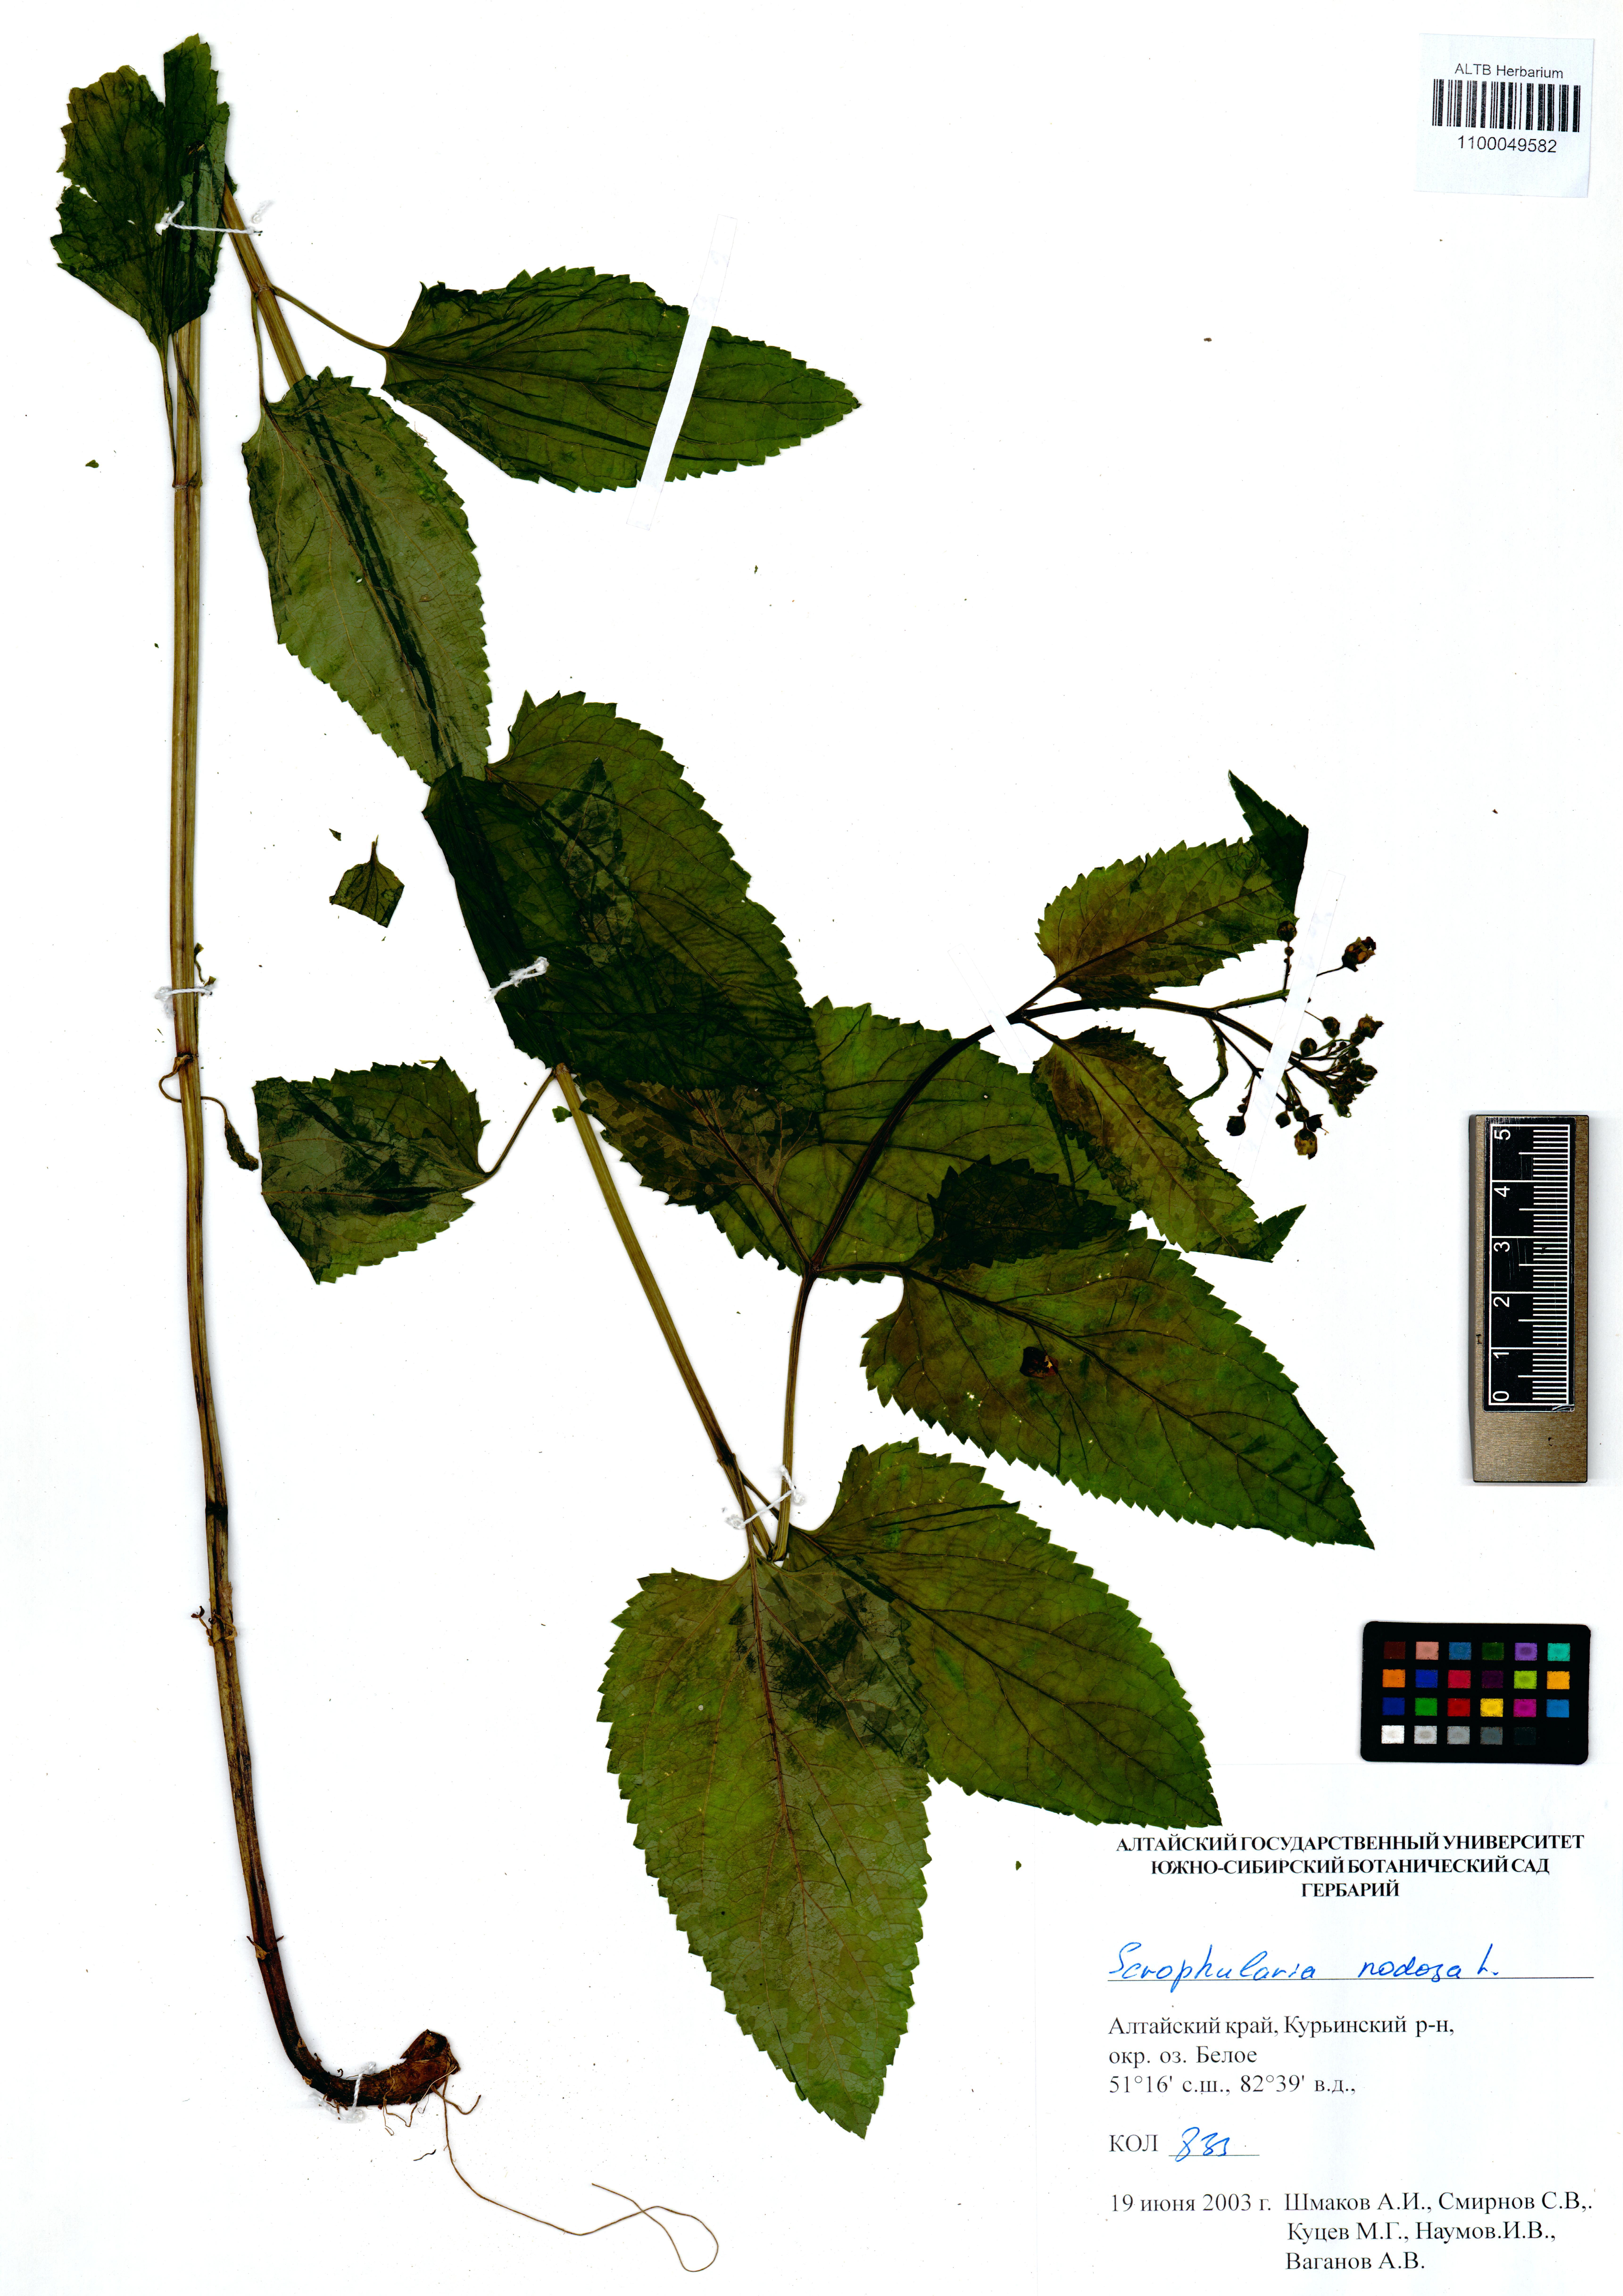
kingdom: Plantae
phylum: Tracheophyta
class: Magnoliopsida
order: Lamiales
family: Scrophulariaceae
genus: Scrophularia
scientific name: Scrophularia nodosa
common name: Common figwort
